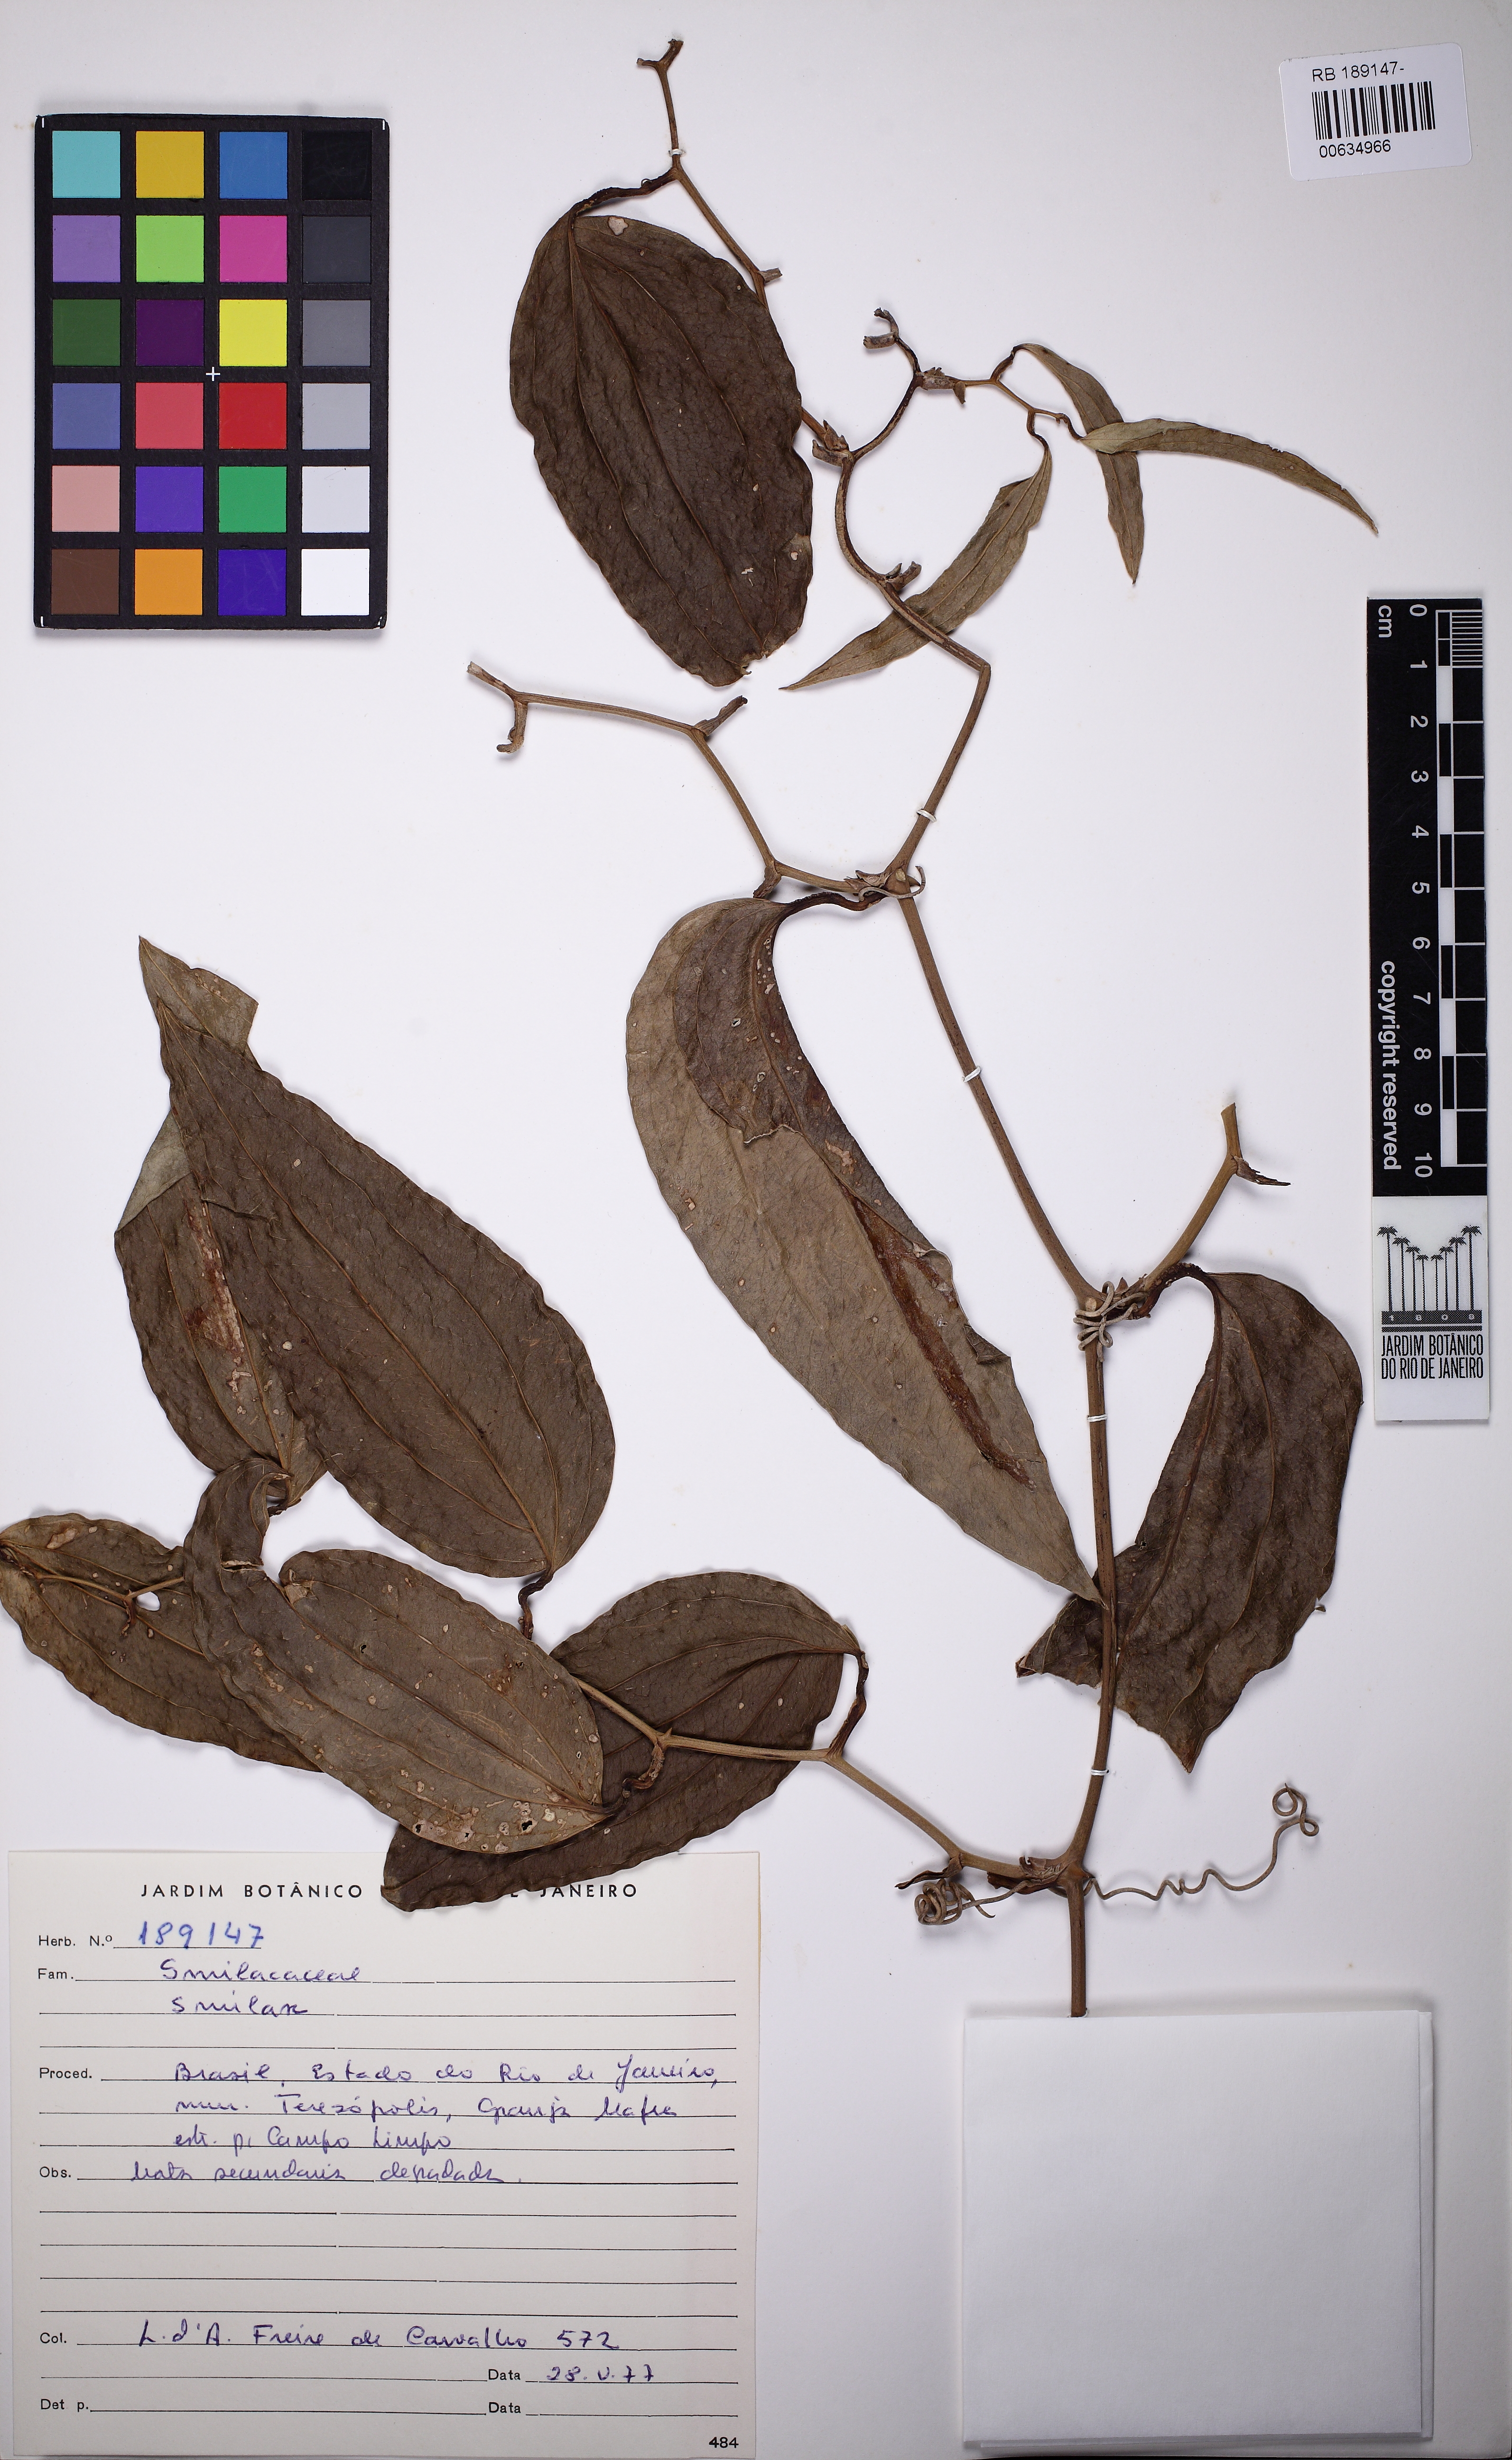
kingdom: Plantae
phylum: Tracheophyta
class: Liliopsida
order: Liliales
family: Smilacaceae
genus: Smilax
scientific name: Smilax
